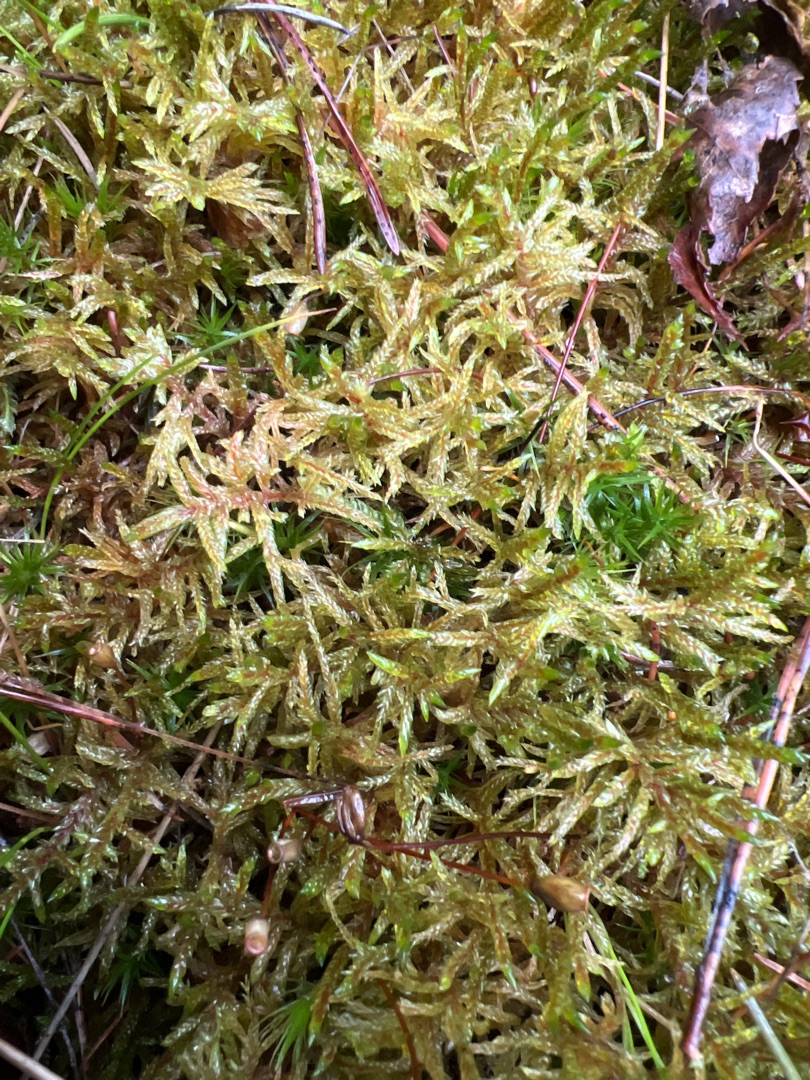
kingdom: Plantae
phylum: Bryophyta
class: Bryopsida
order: Hypnales
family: Hylocomiaceae
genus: Pleurozium
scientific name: Pleurozium schreberi
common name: Trind fyrremos
